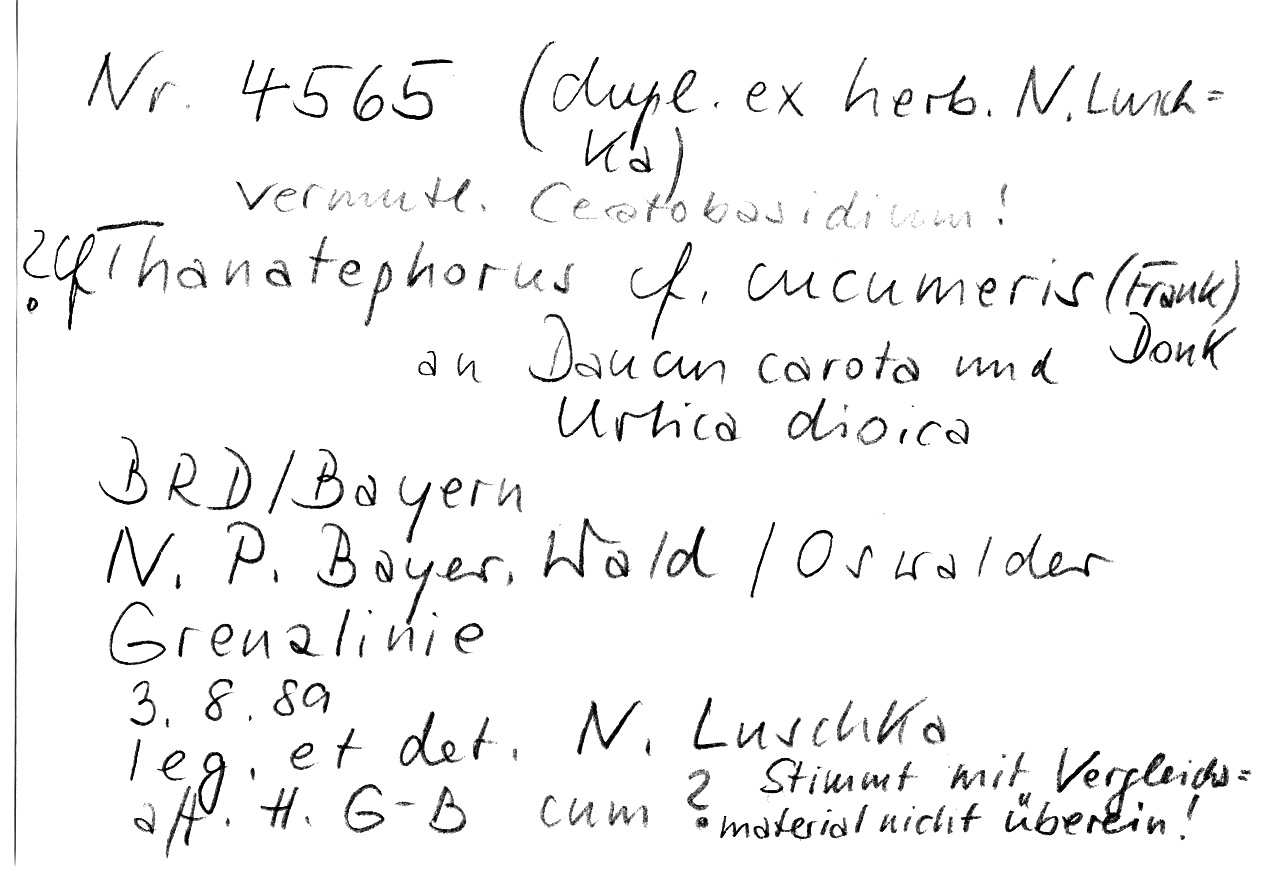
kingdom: Fungi
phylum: Basidiomycota
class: Agaricomycetes
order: Cantharellales
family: Ceratobasidiaceae
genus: Rhizoctonia
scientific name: Rhizoctonia solani
